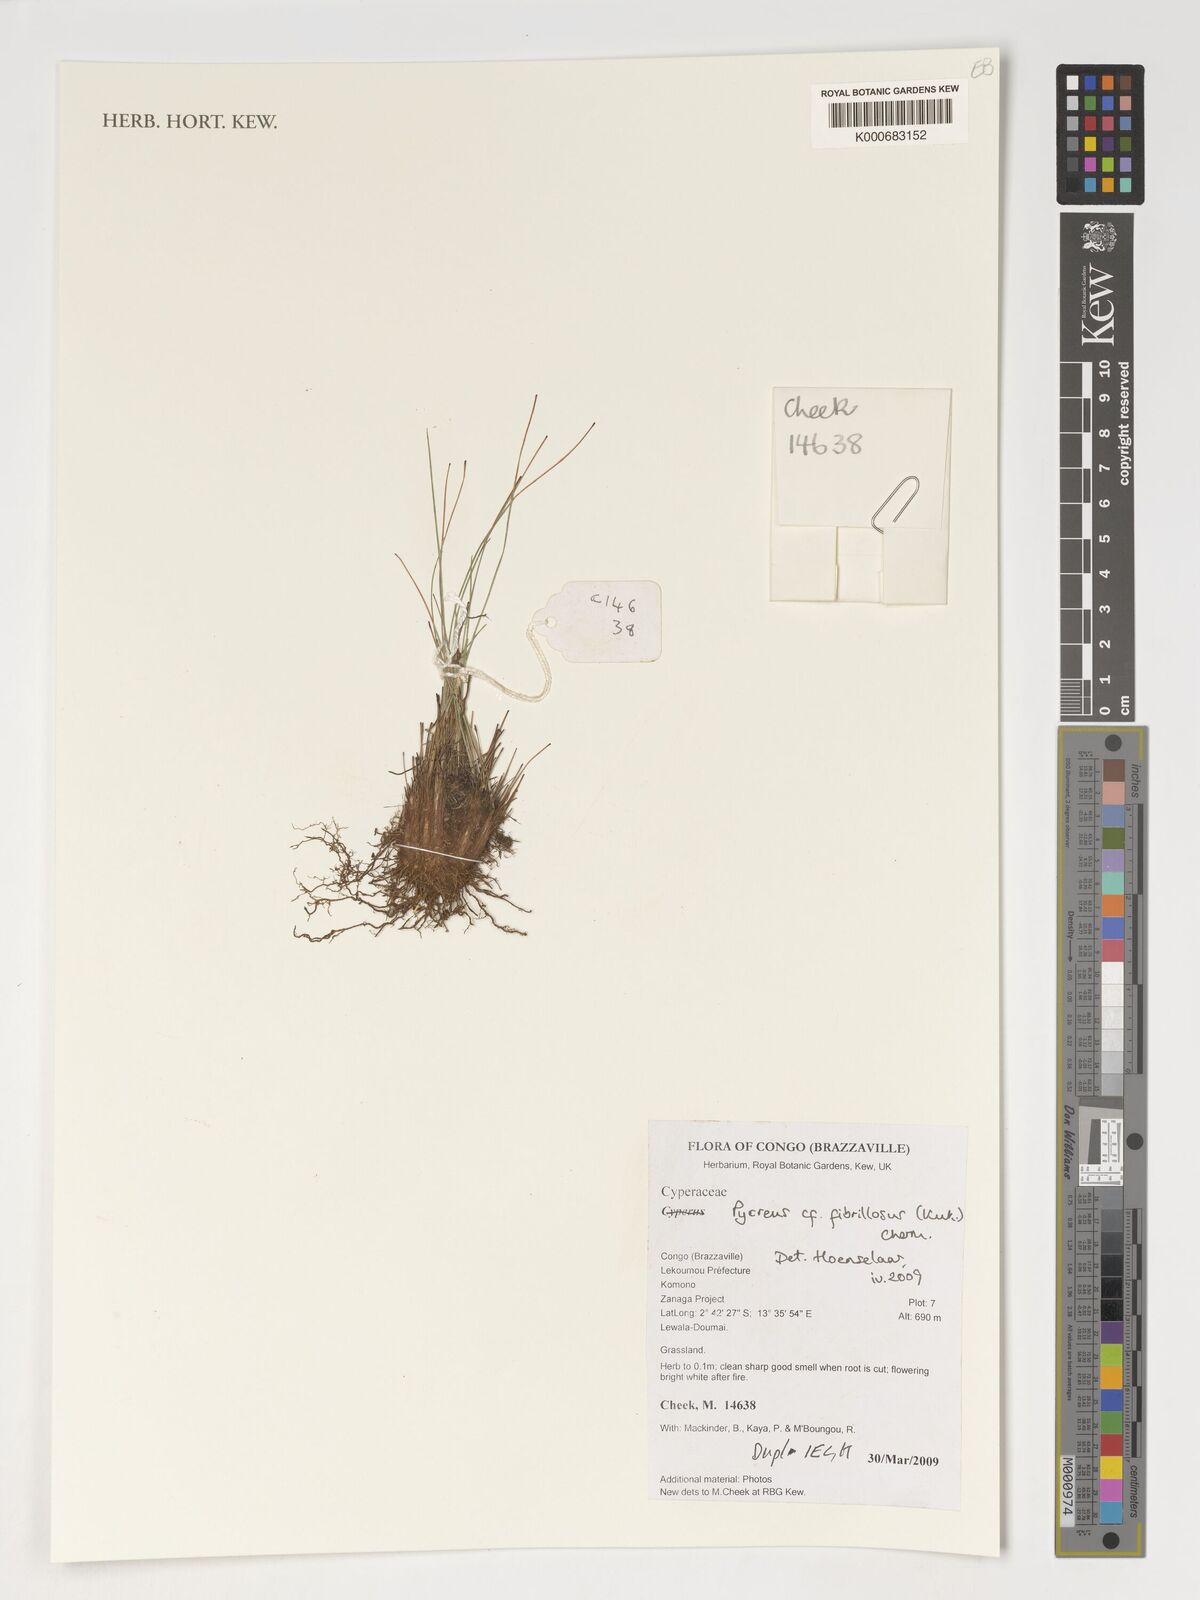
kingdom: Plantae
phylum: Tracheophyta
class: Liliopsida
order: Poales
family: Cyperaceae
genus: Cyperus
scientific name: Cyperus nigricans
